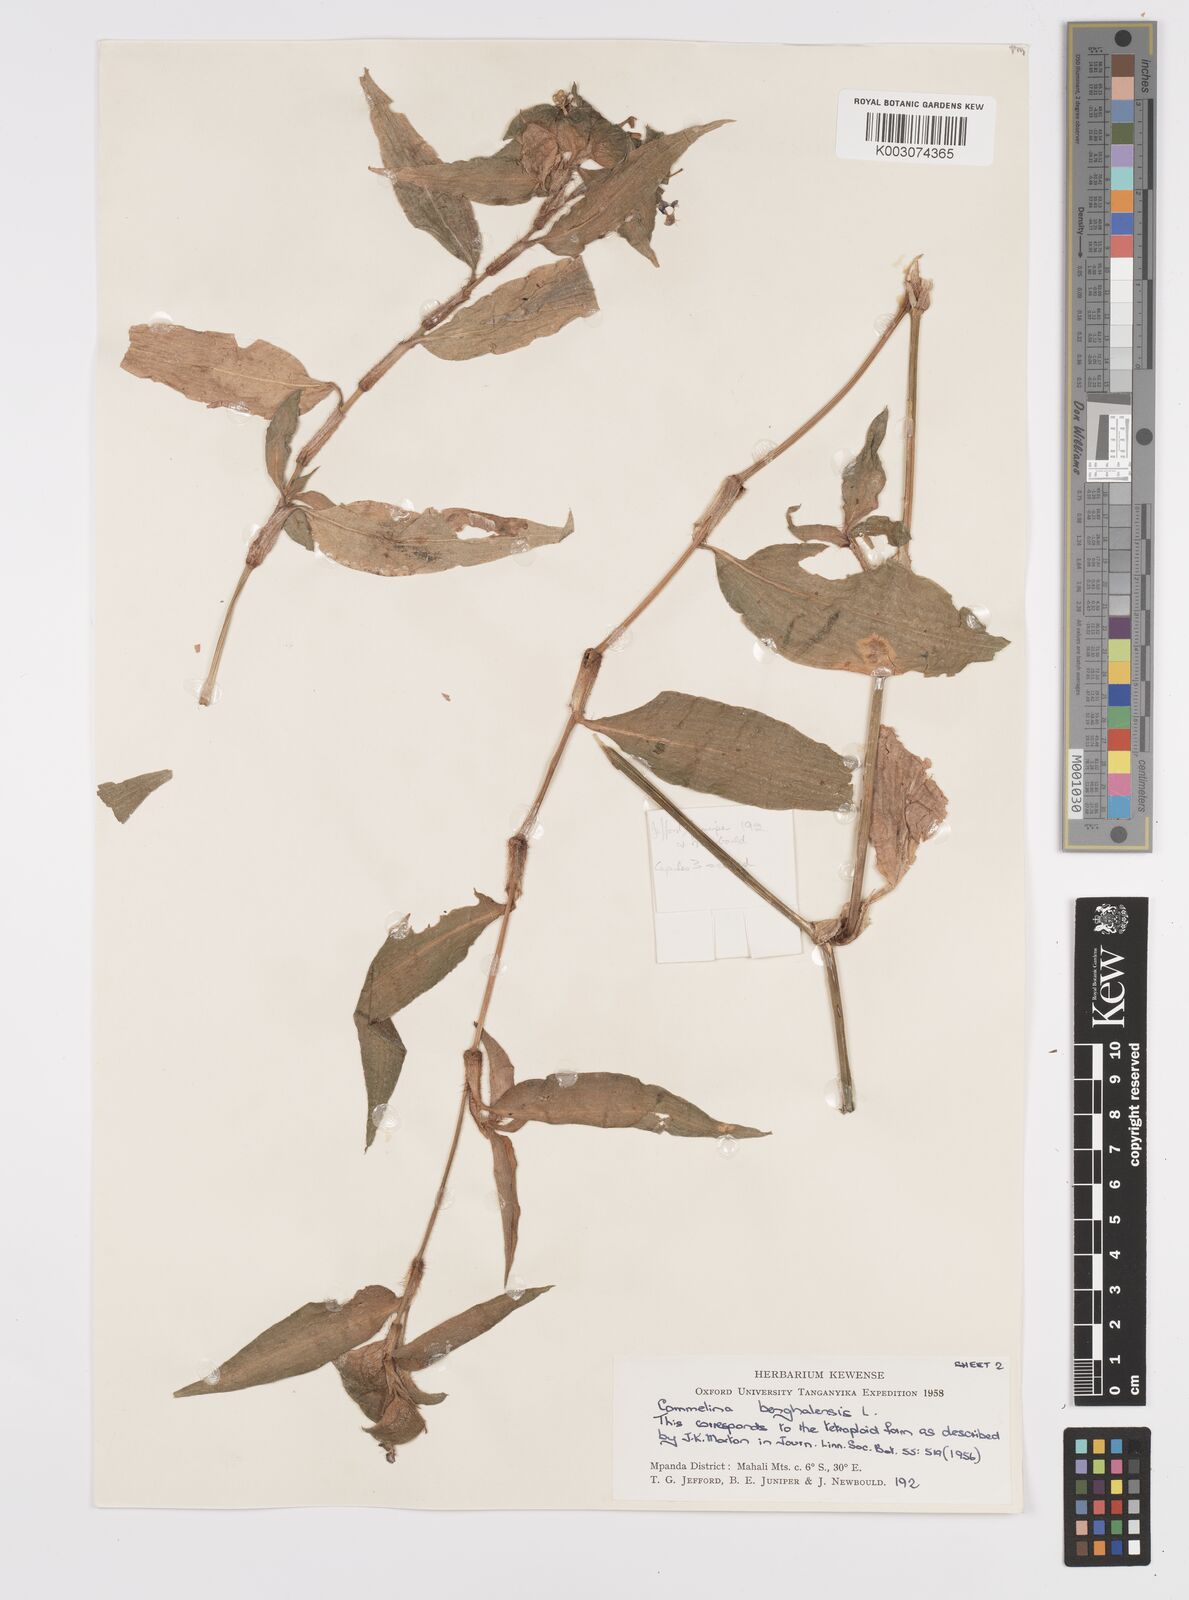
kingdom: Plantae
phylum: Tracheophyta
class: Liliopsida
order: Commelinales
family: Commelinaceae
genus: Commelina
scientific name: Commelina benghalensis
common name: Jio
